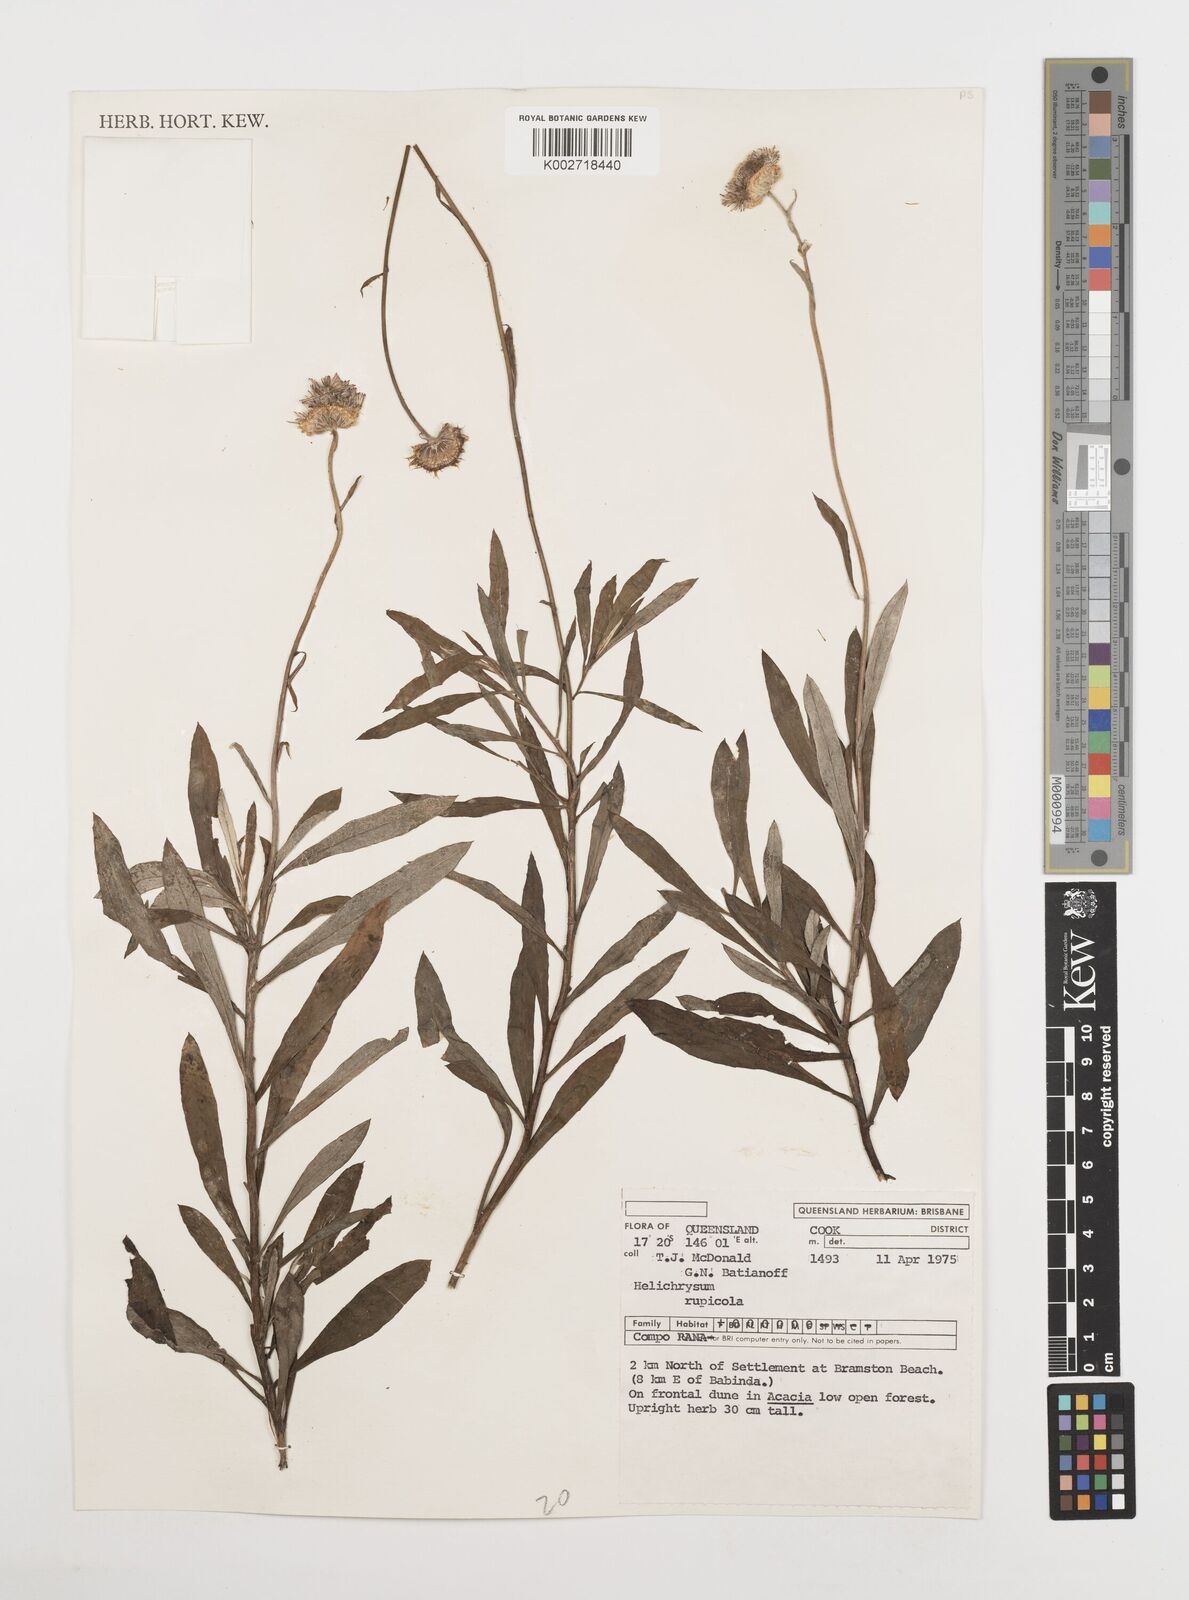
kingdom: Plantae
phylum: Tracheophyta
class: Magnoliopsida
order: Asterales
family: Asteraceae
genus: Coronidium
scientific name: Coronidium rupicola
